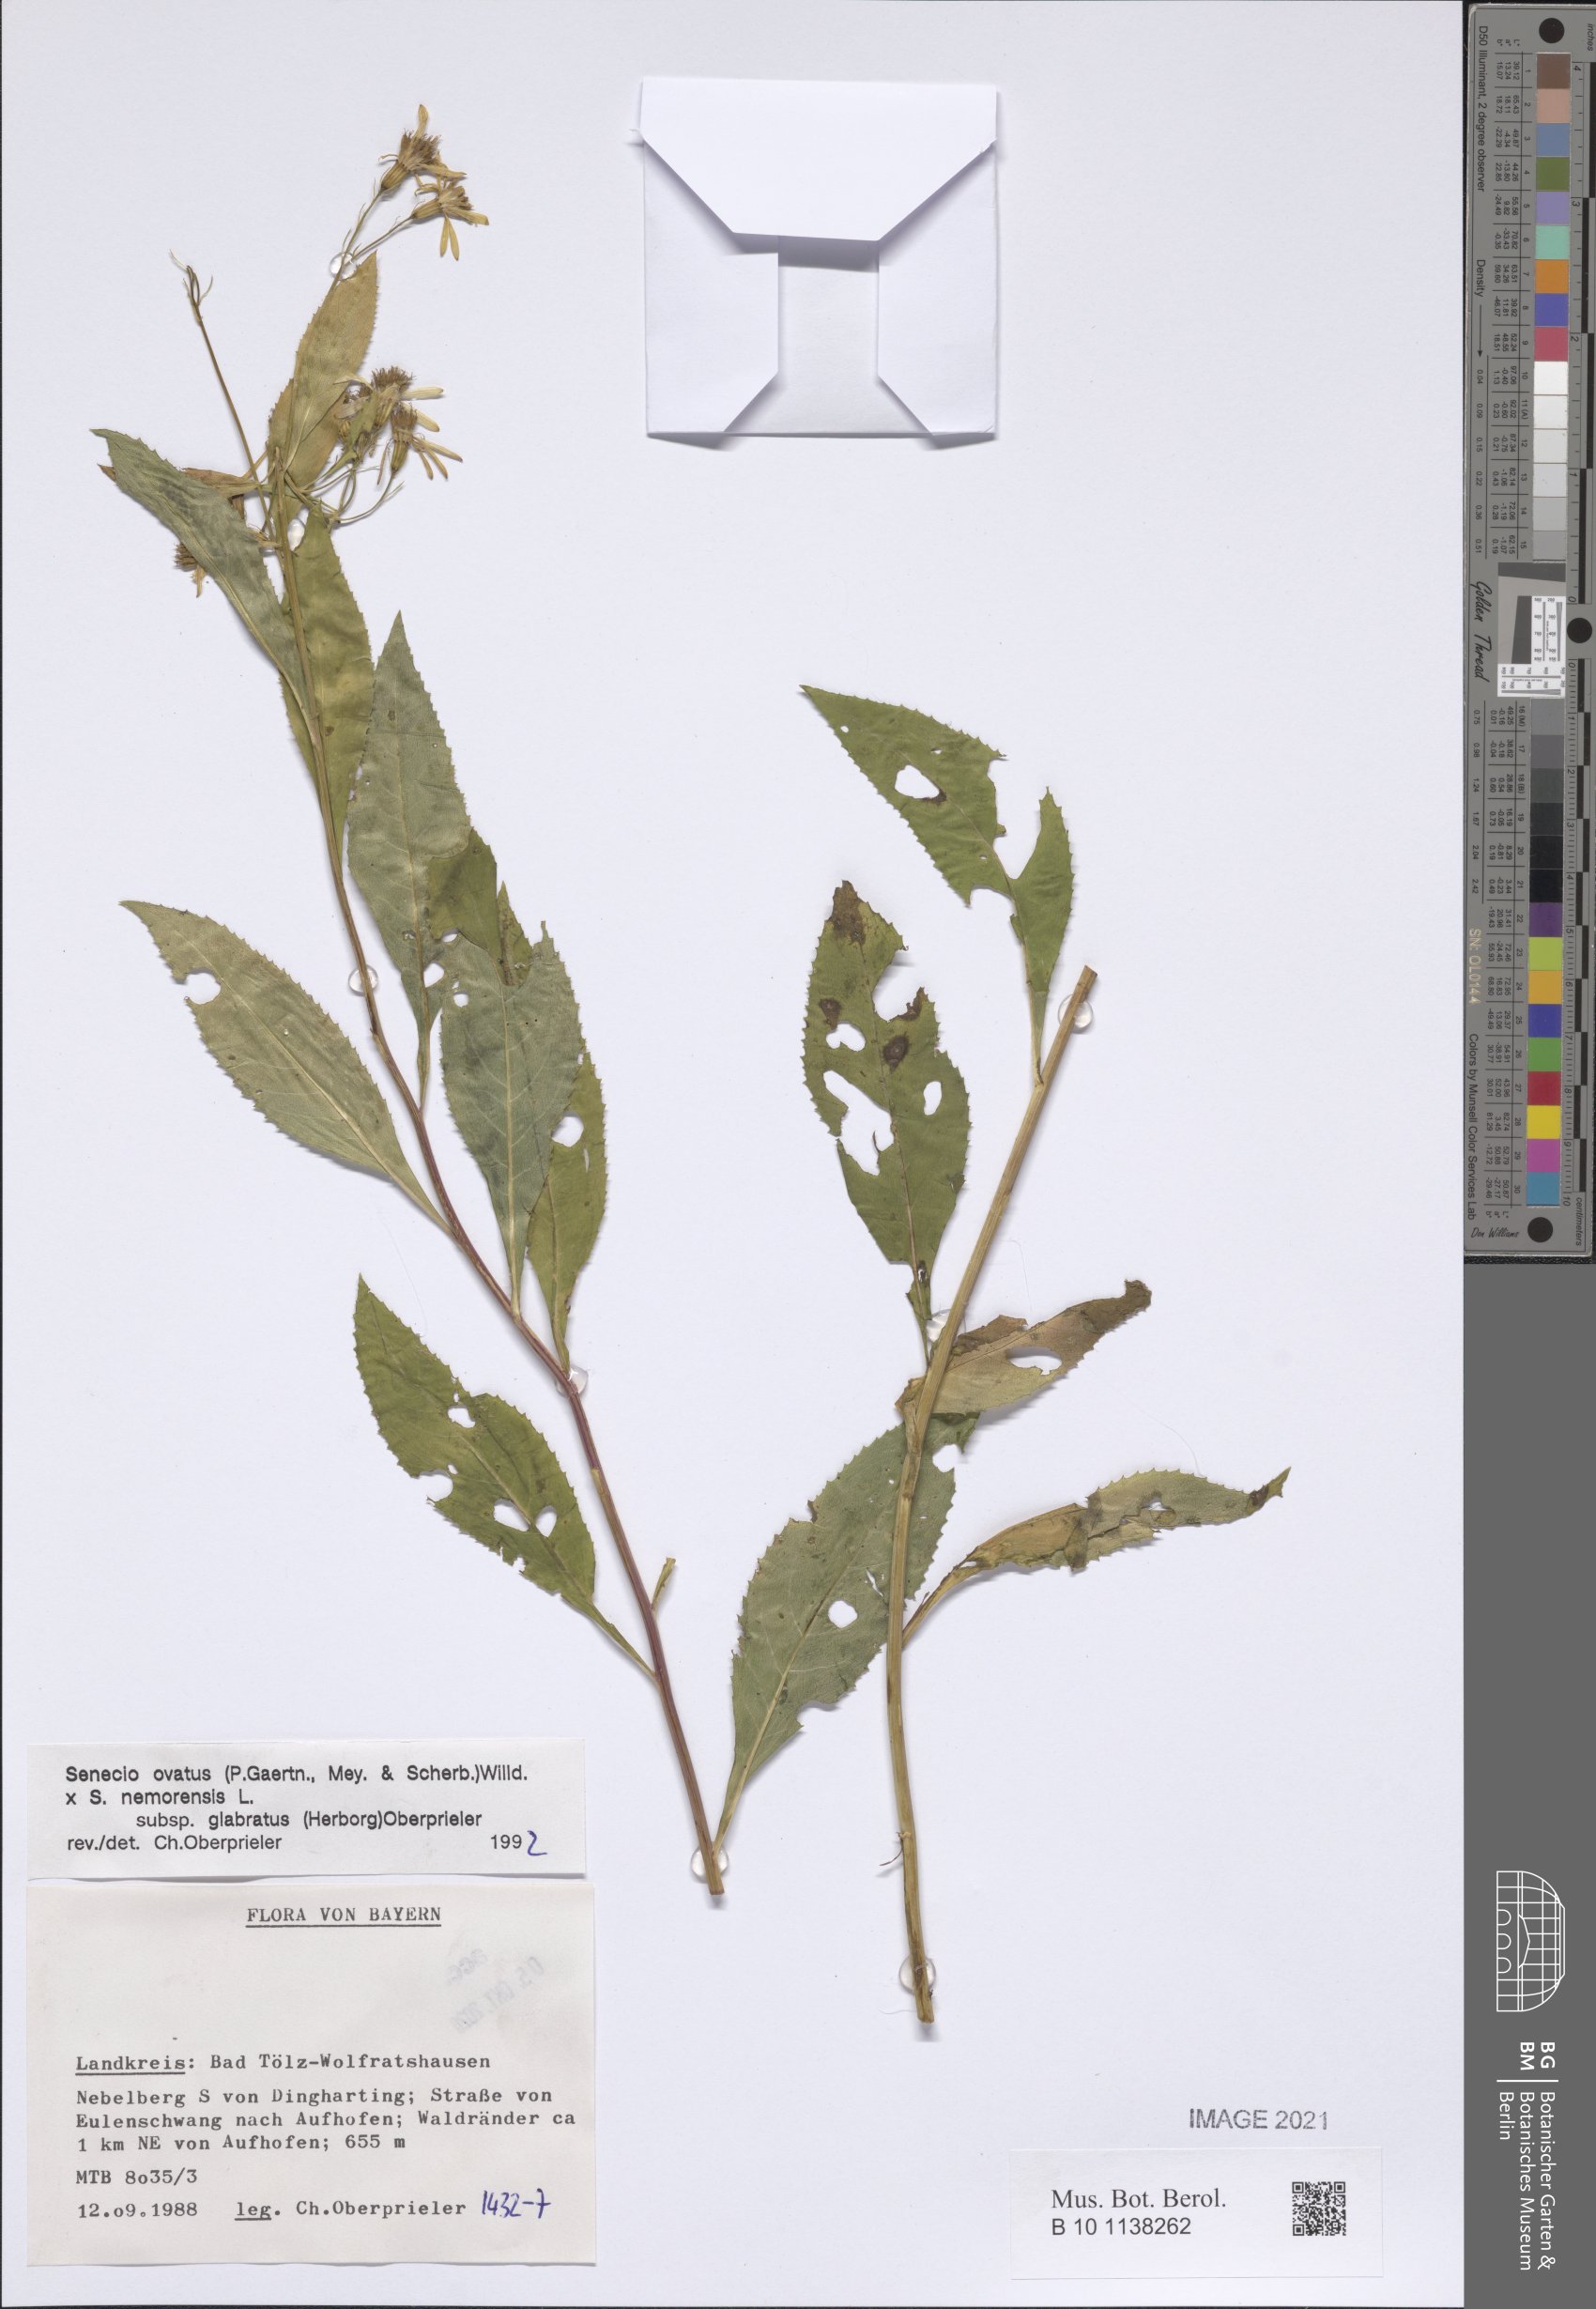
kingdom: Plantae
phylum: Tracheophyta
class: Magnoliopsida
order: Asterales
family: Asteraceae
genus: Senecio
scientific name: Senecio ovatus
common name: Wood ragwort
